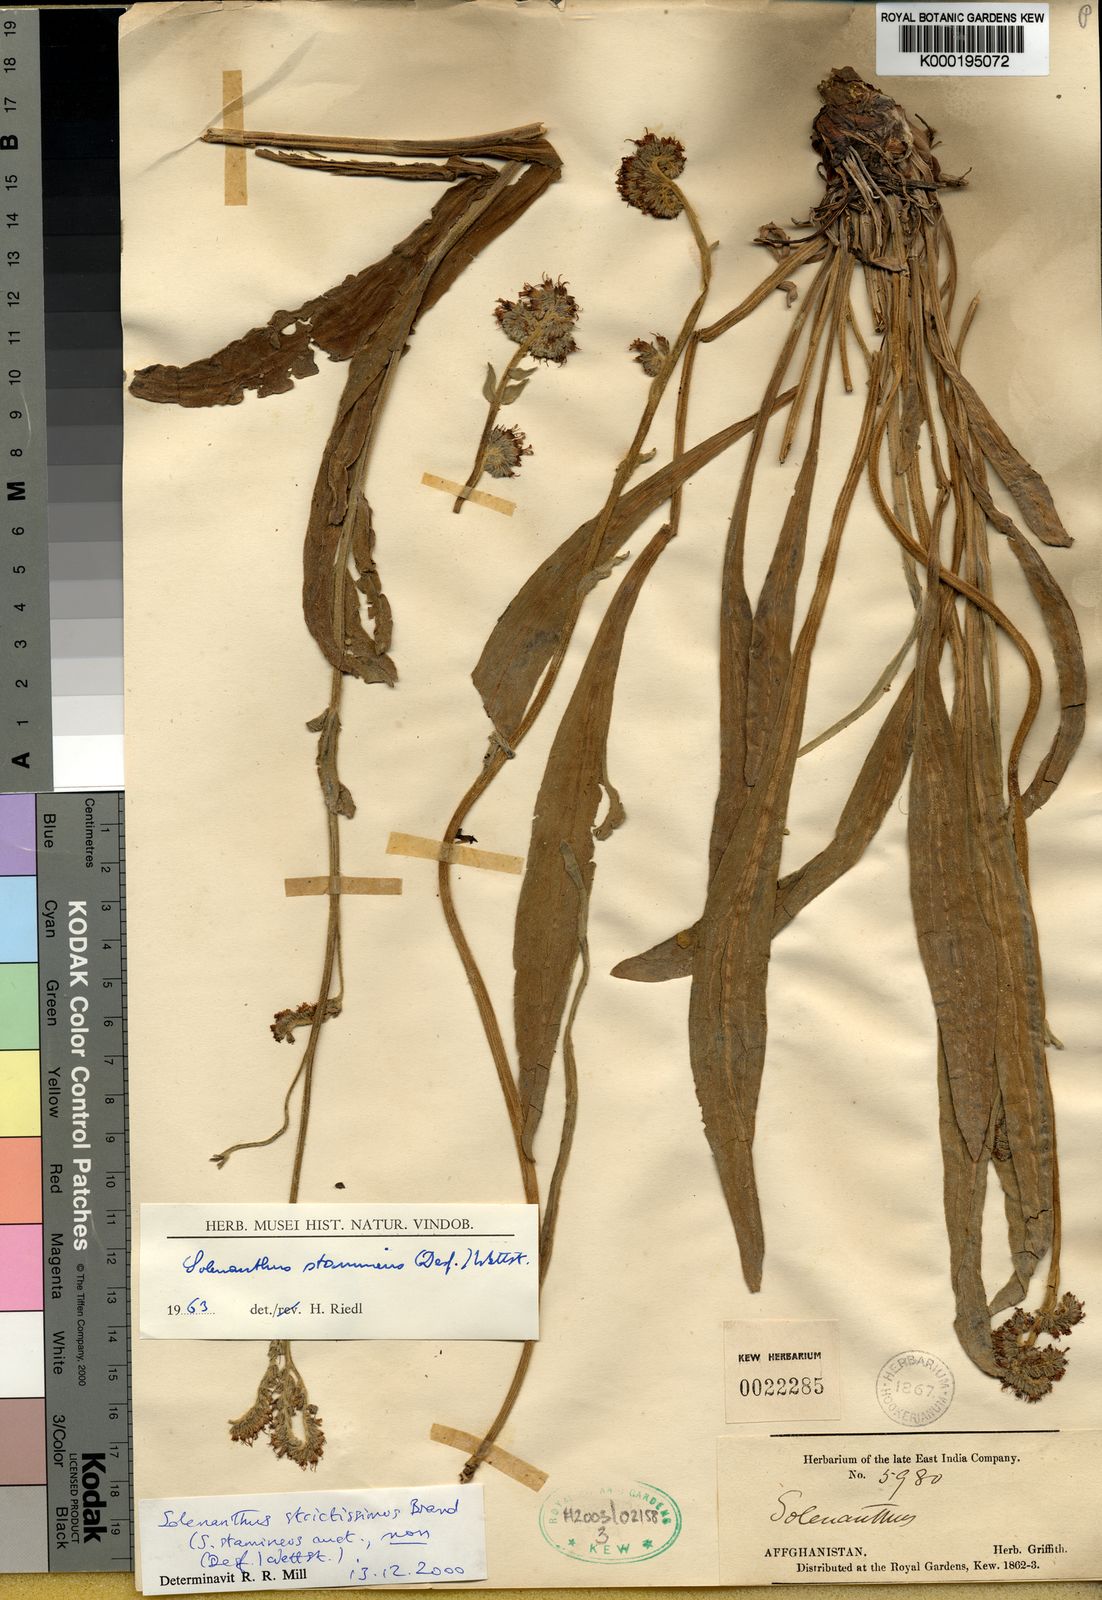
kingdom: Plantae
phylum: Tracheophyta
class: Magnoliopsida
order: Boraginales
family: Boraginaceae
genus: Solenanthus
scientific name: Solenanthus strictissimus
